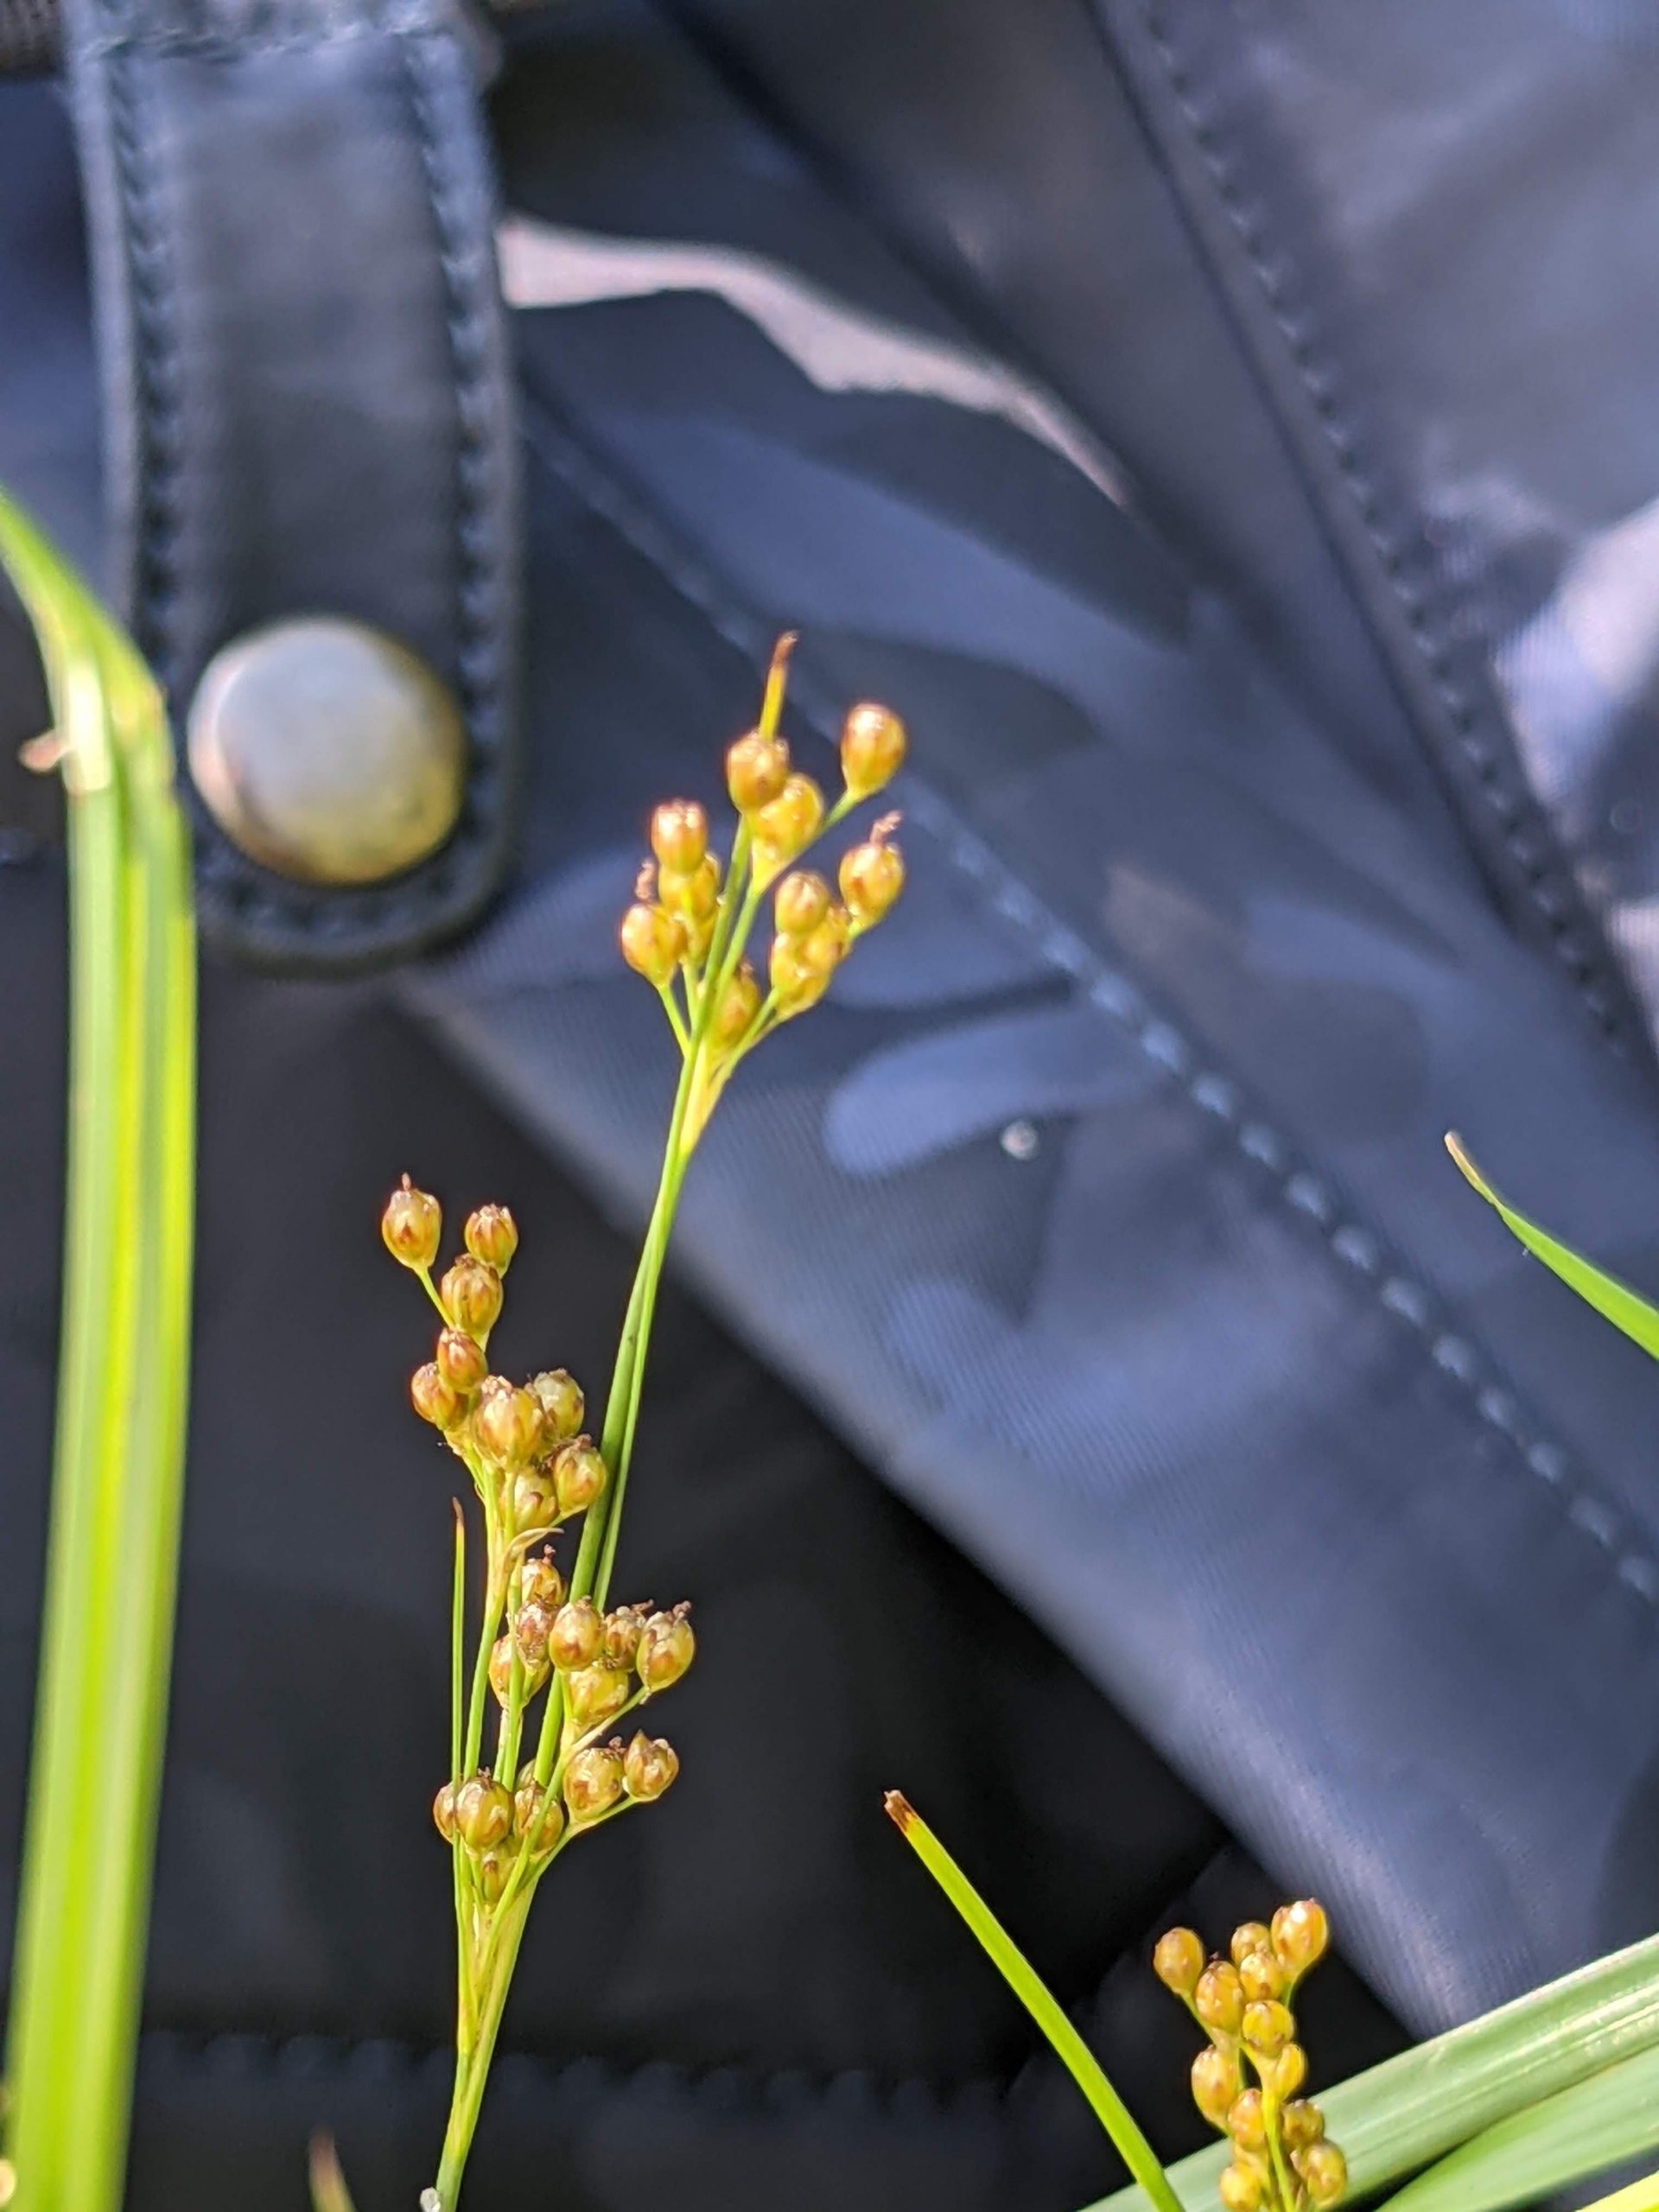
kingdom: Plantae
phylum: Tracheophyta
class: Liliopsida
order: Poales
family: Juncaceae
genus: Juncus
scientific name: Juncus compressus
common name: Fladstrået siv
